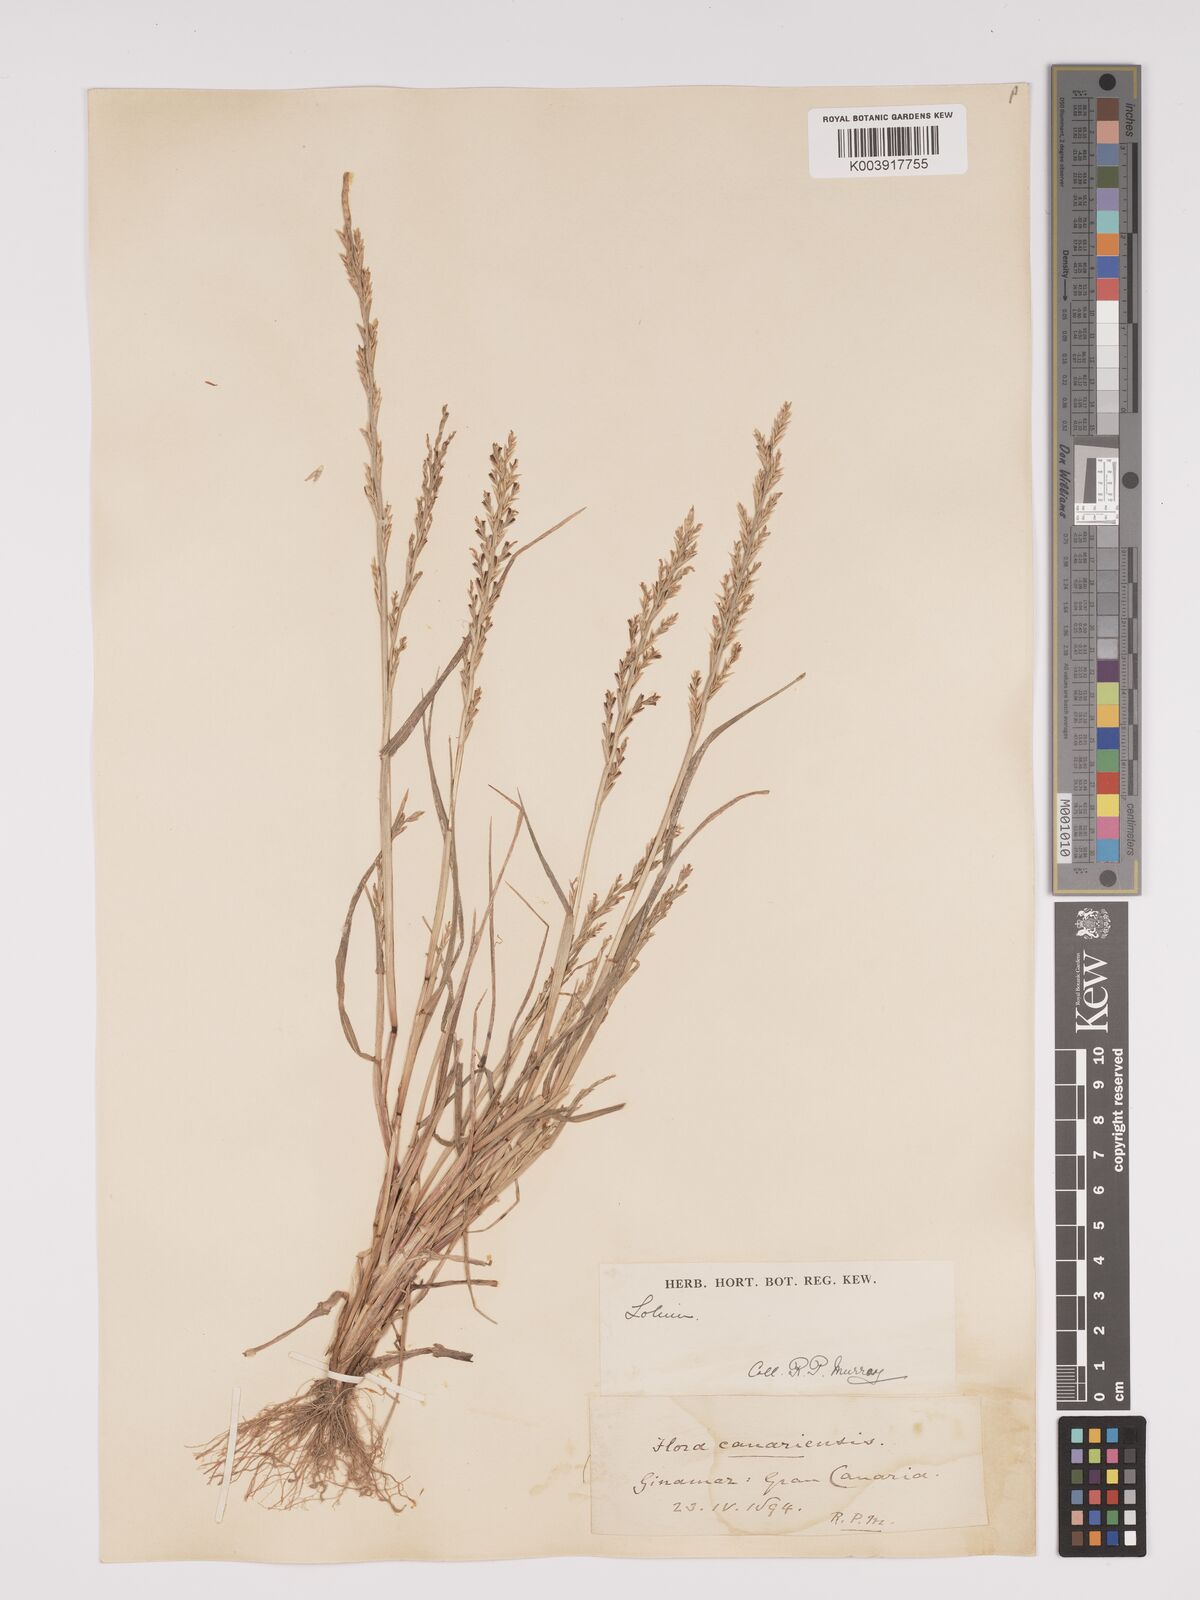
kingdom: Plantae
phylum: Tracheophyta
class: Liliopsida
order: Poales
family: Poaceae
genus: Lolium
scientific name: Lolium rigidum
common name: Wimmera ryegrass
